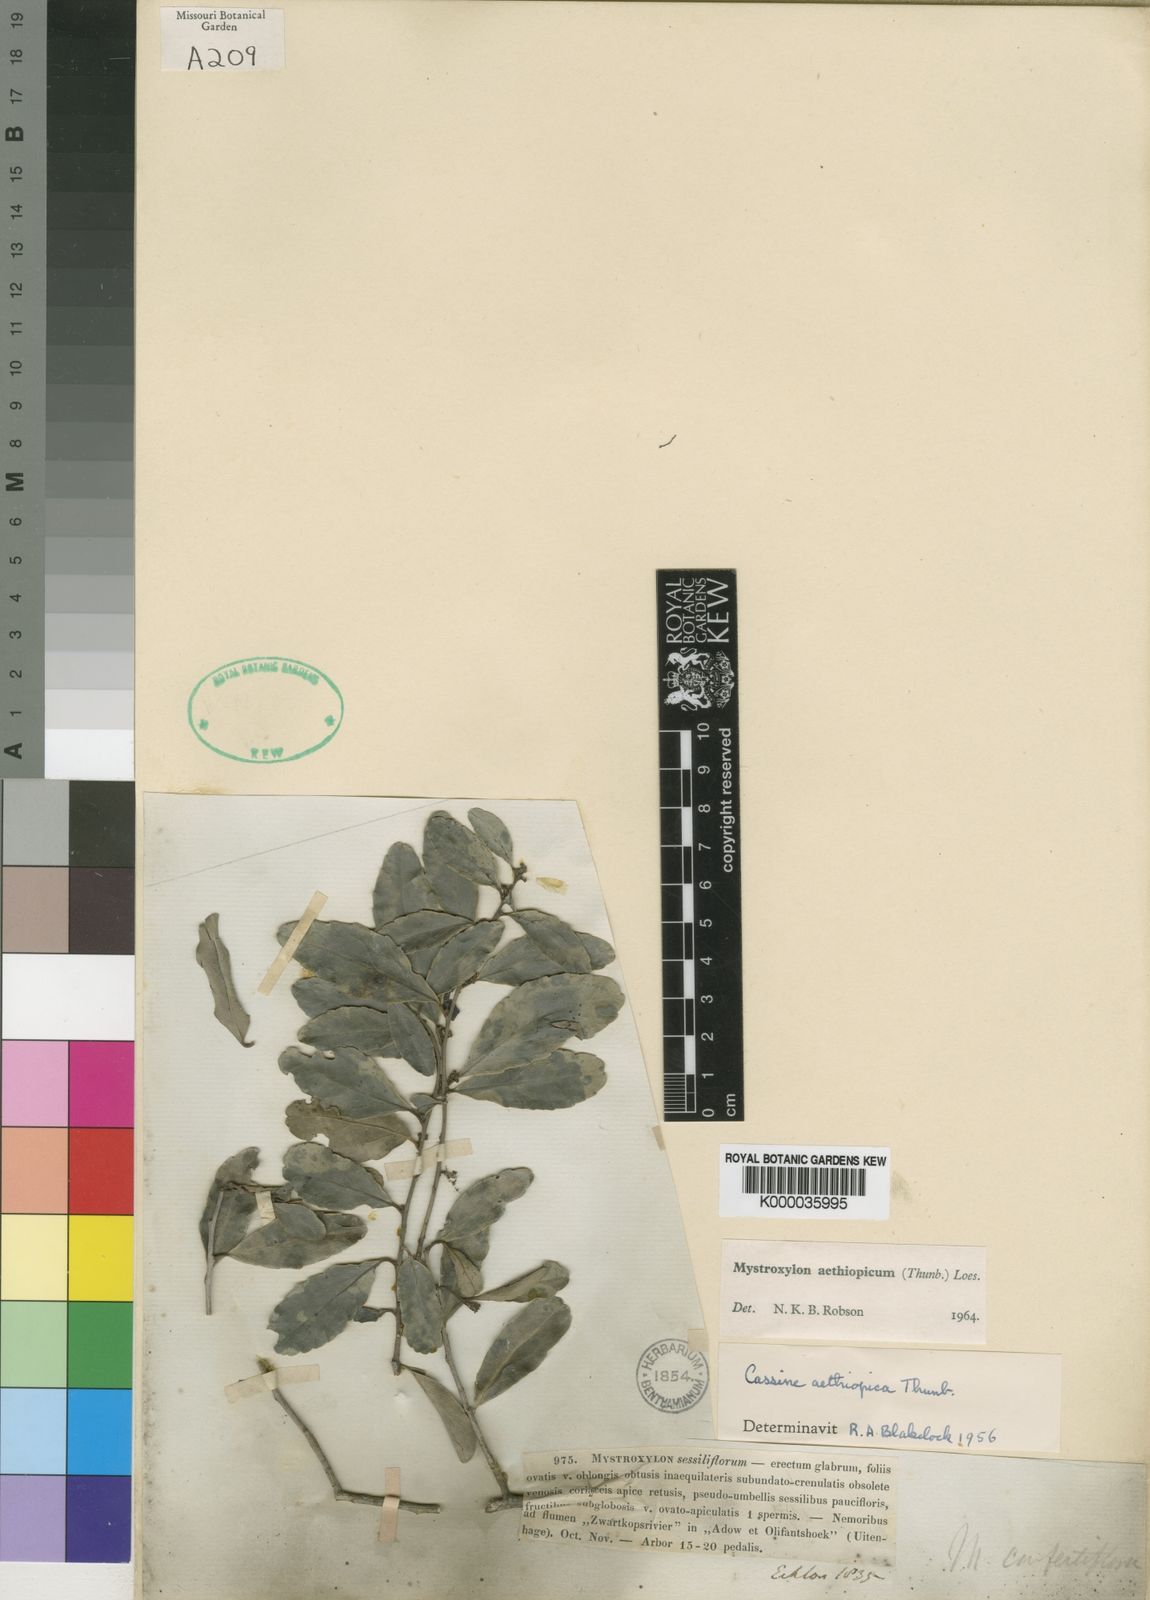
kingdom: Plantae
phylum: Tracheophyta
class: Magnoliopsida
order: Celastrales
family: Celastraceae
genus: Mystroxylon
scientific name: Mystroxylon aethiopicum
